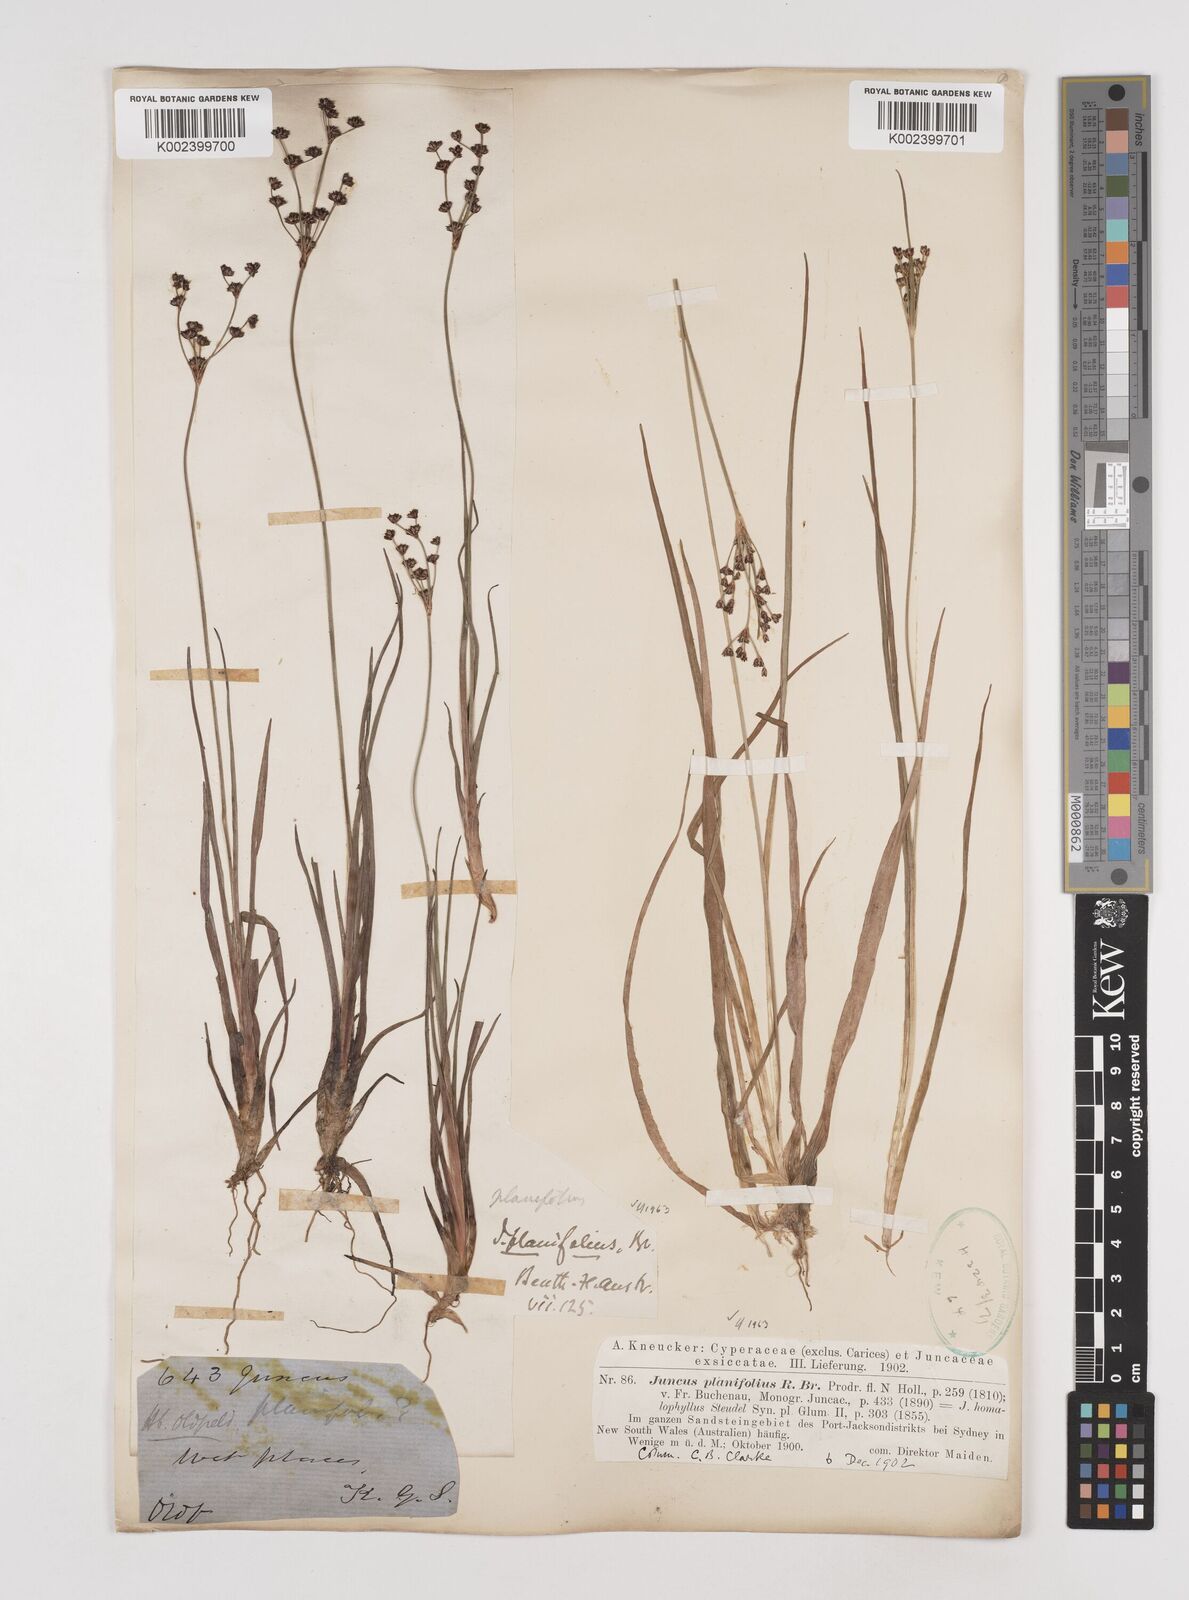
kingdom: Plantae
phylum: Tracheophyta
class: Liliopsida
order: Poales
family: Juncaceae
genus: Juncus
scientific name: Juncus planifolius
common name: Broadleaf rush
